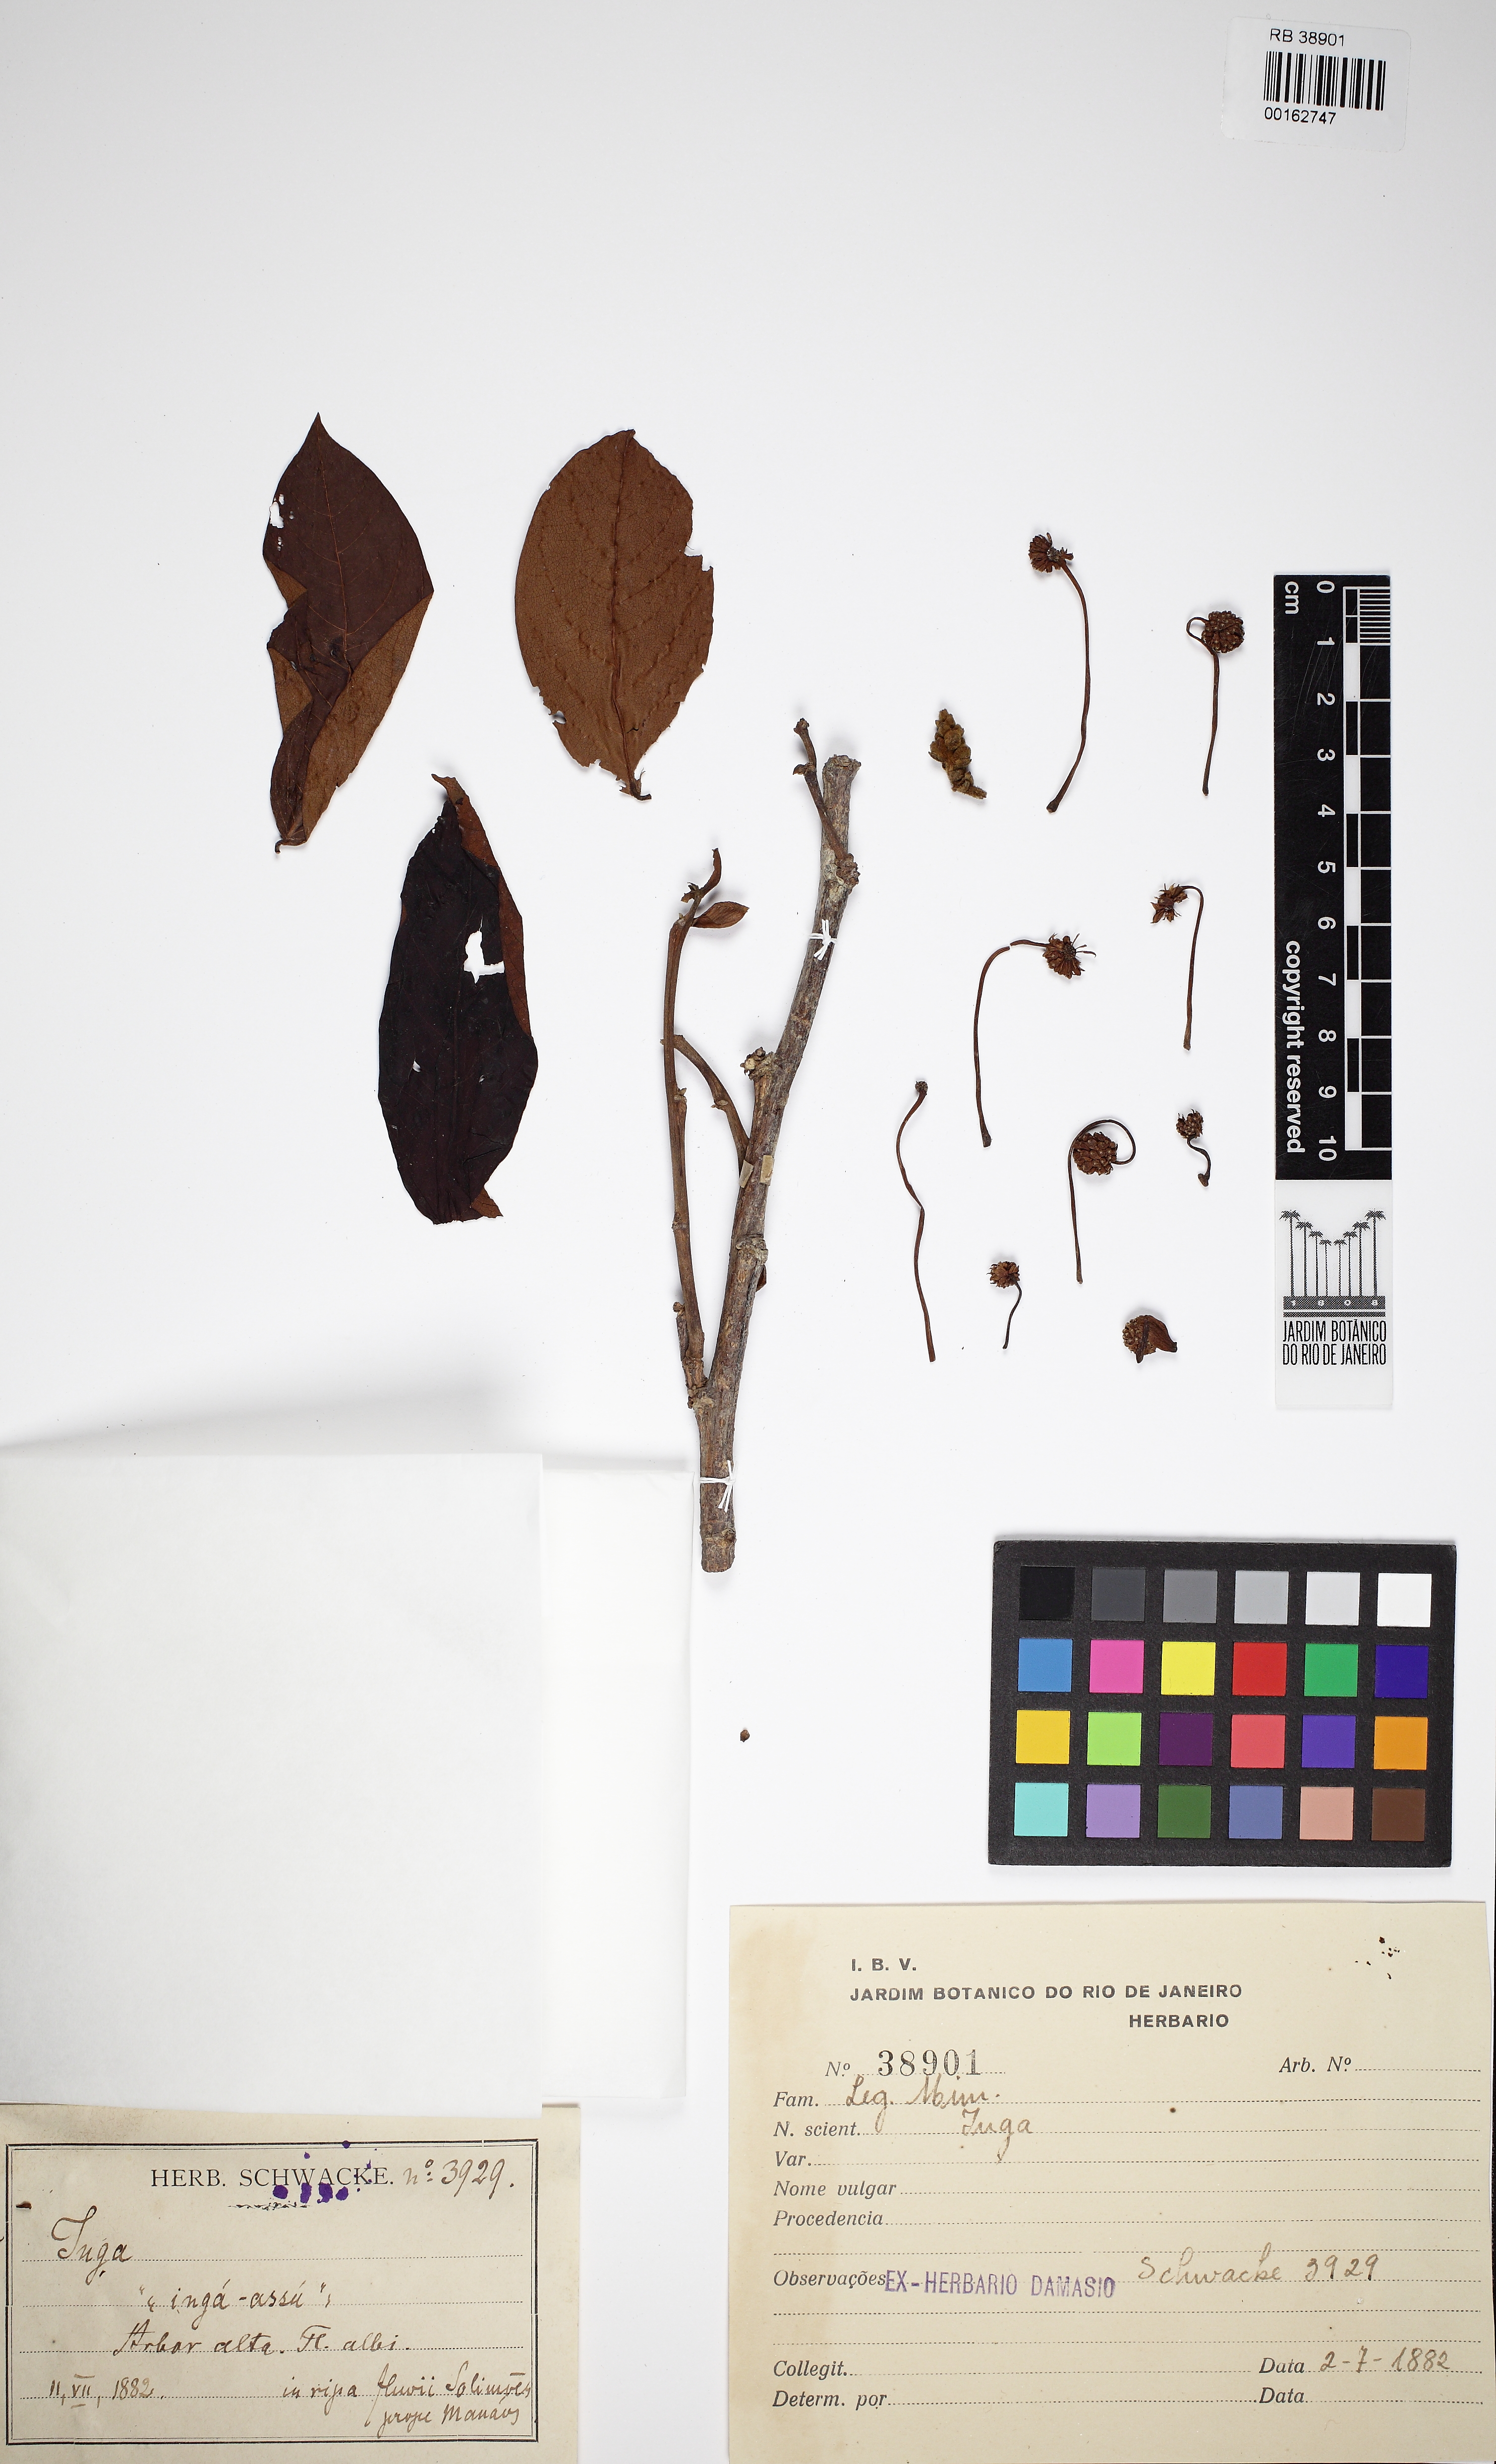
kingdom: Plantae
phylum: Tracheophyta
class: Magnoliopsida
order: Fabales
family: Fabaceae
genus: Inga
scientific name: Inga
